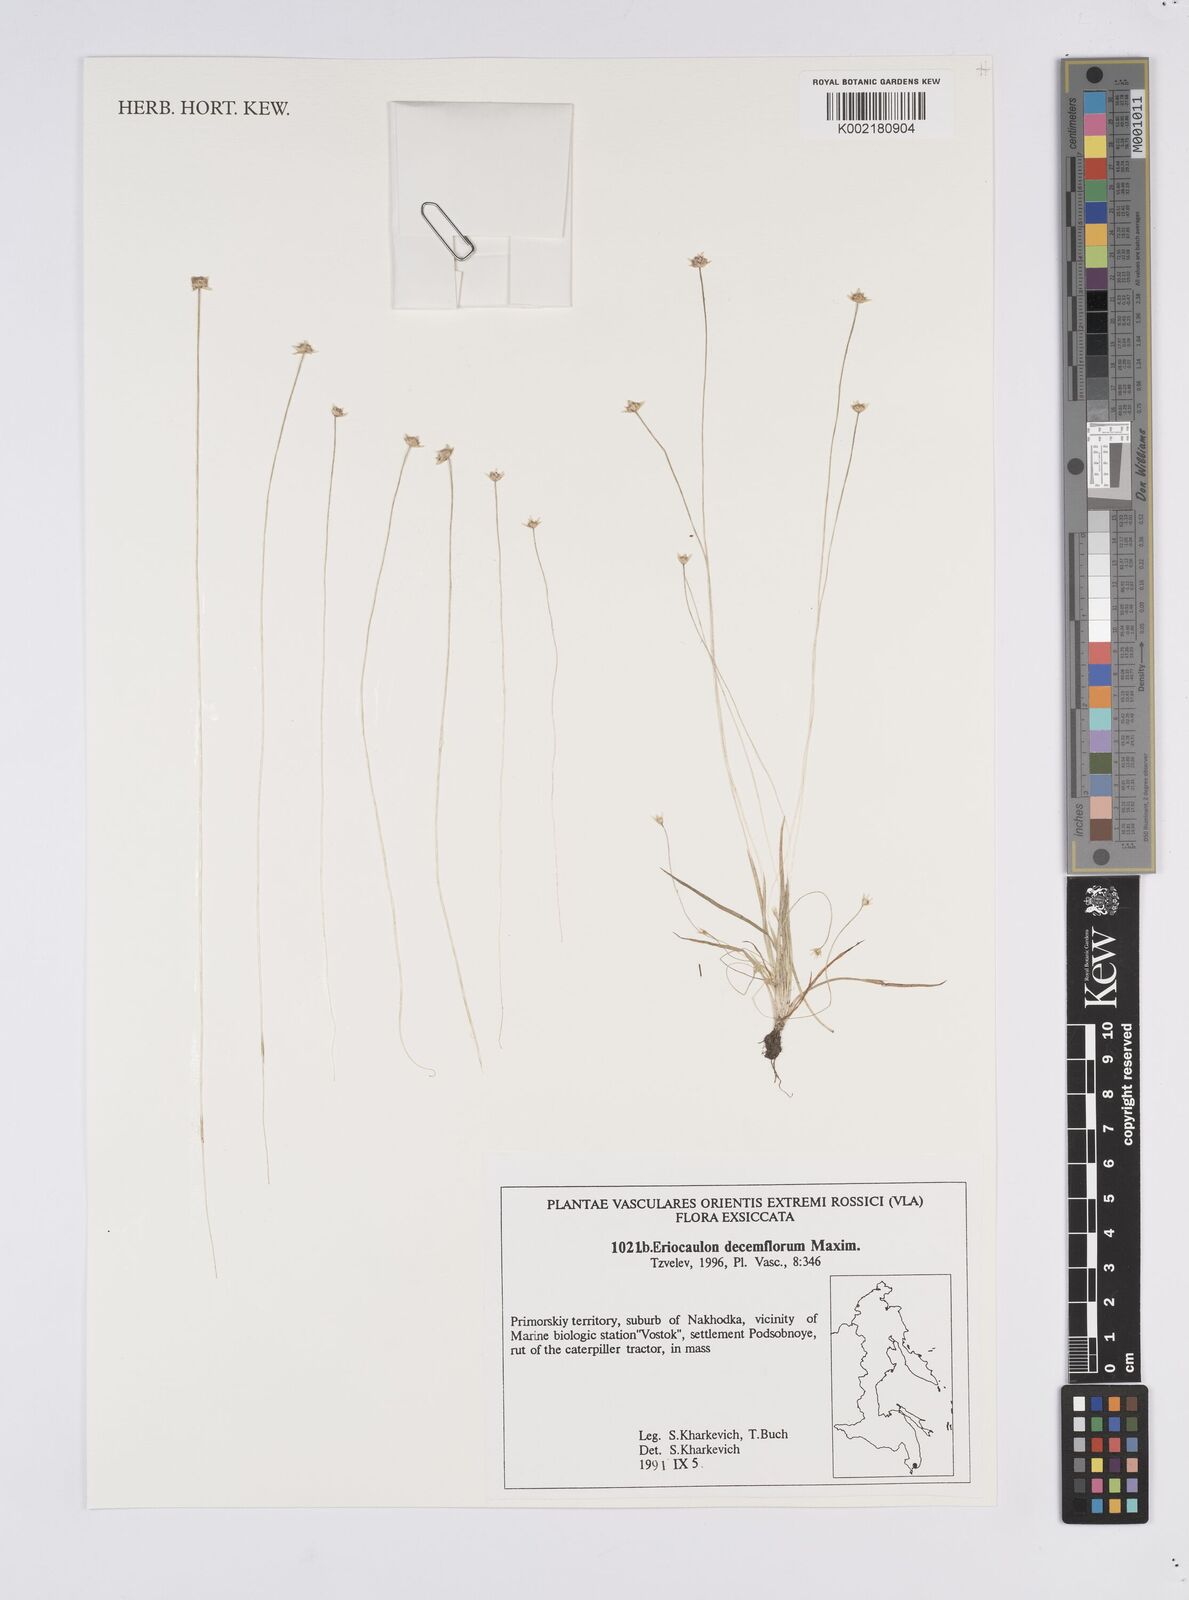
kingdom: Plantae
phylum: Tracheophyta
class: Liliopsida
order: Poales
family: Eriocaulaceae
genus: Eriocaulon
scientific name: Eriocaulon decemflorum
